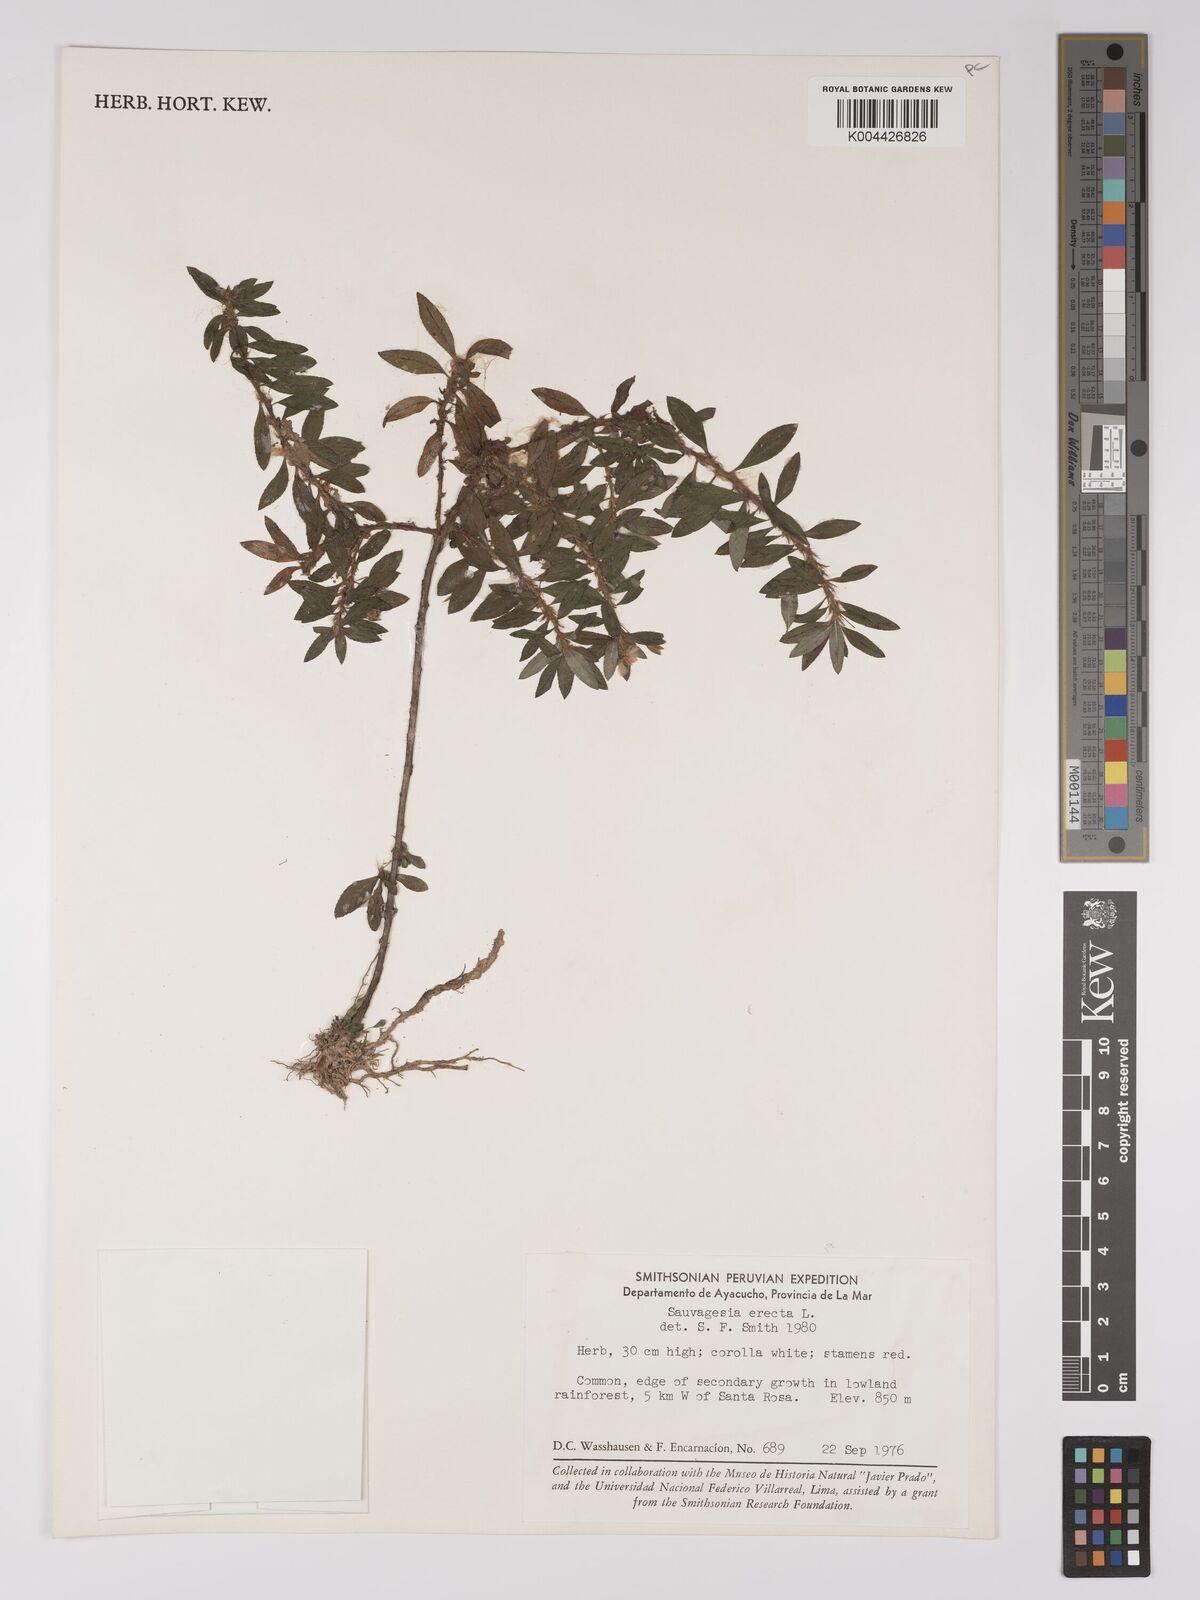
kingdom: Plantae
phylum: Tracheophyta
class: Magnoliopsida
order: Malpighiales
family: Ochnaceae
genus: Sauvagesia
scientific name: Sauvagesia erecta
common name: Creole tea
